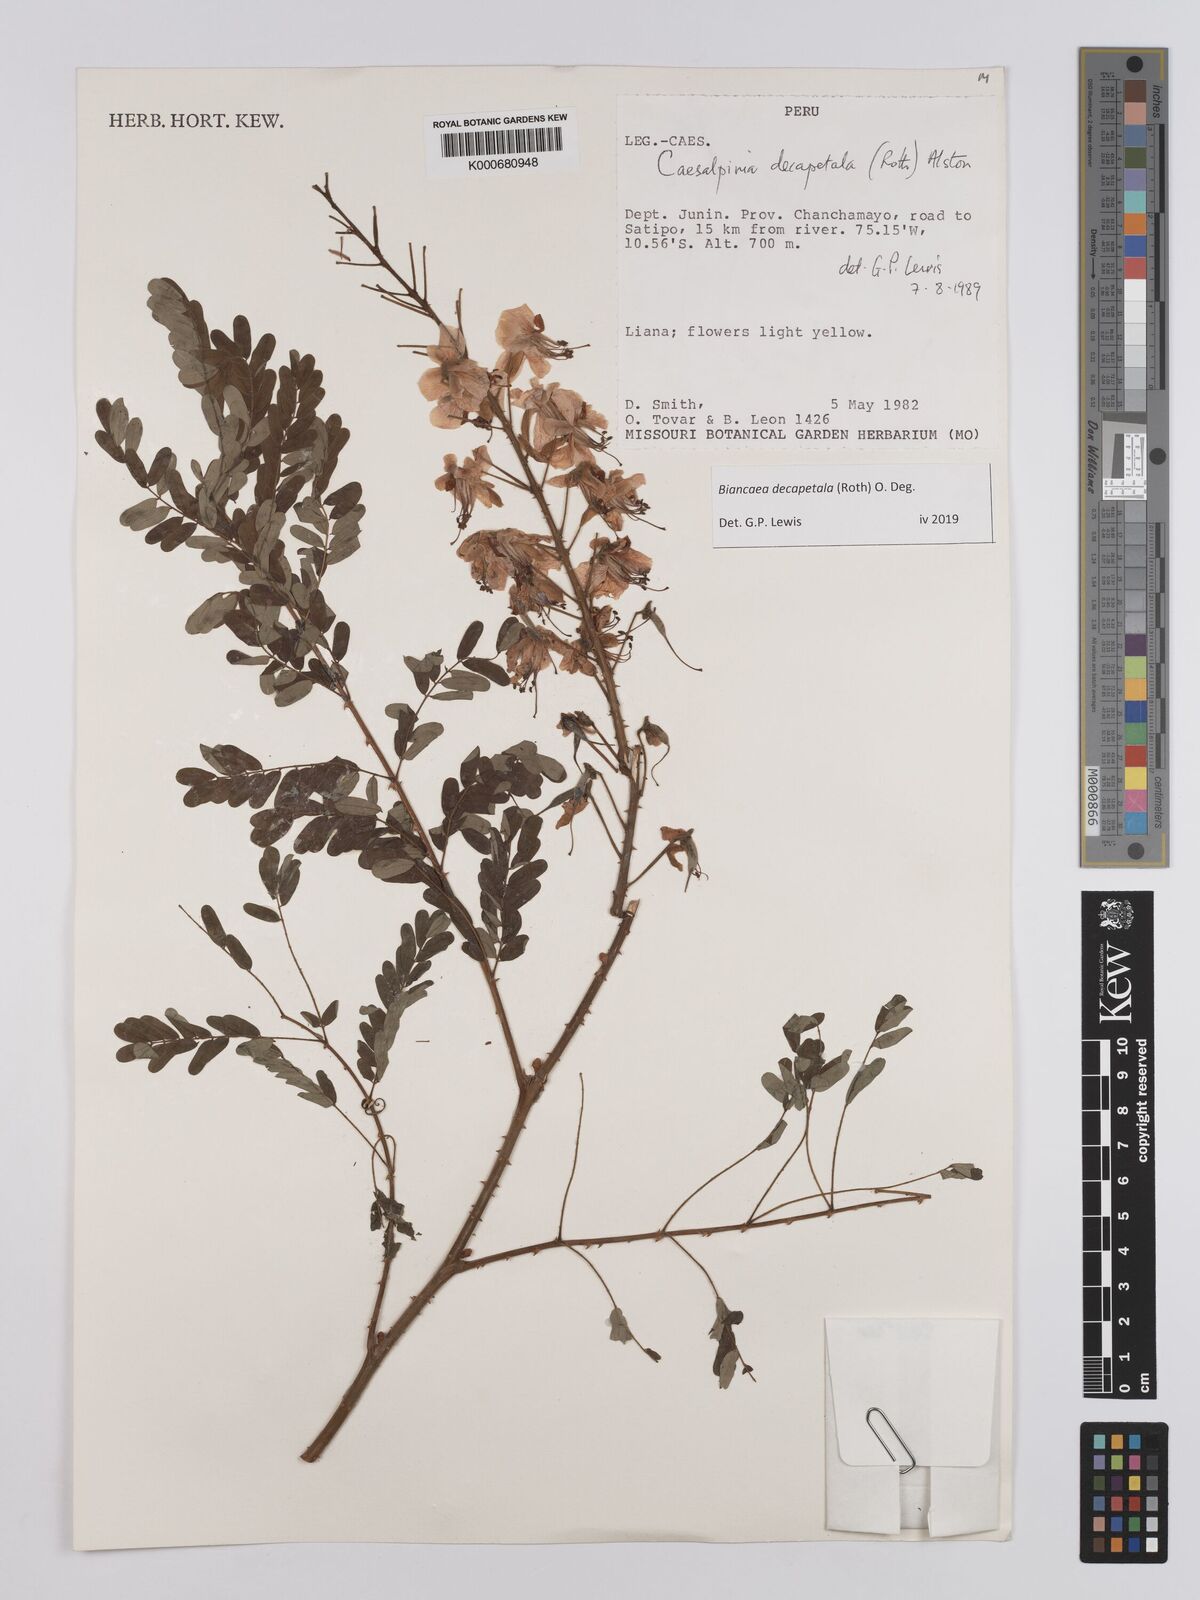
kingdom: Plantae
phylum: Tracheophyta
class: Magnoliopsida
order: Fabales
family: Fabaceae
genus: Biancaea
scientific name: Biancaea decapetala
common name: Cat's claw
